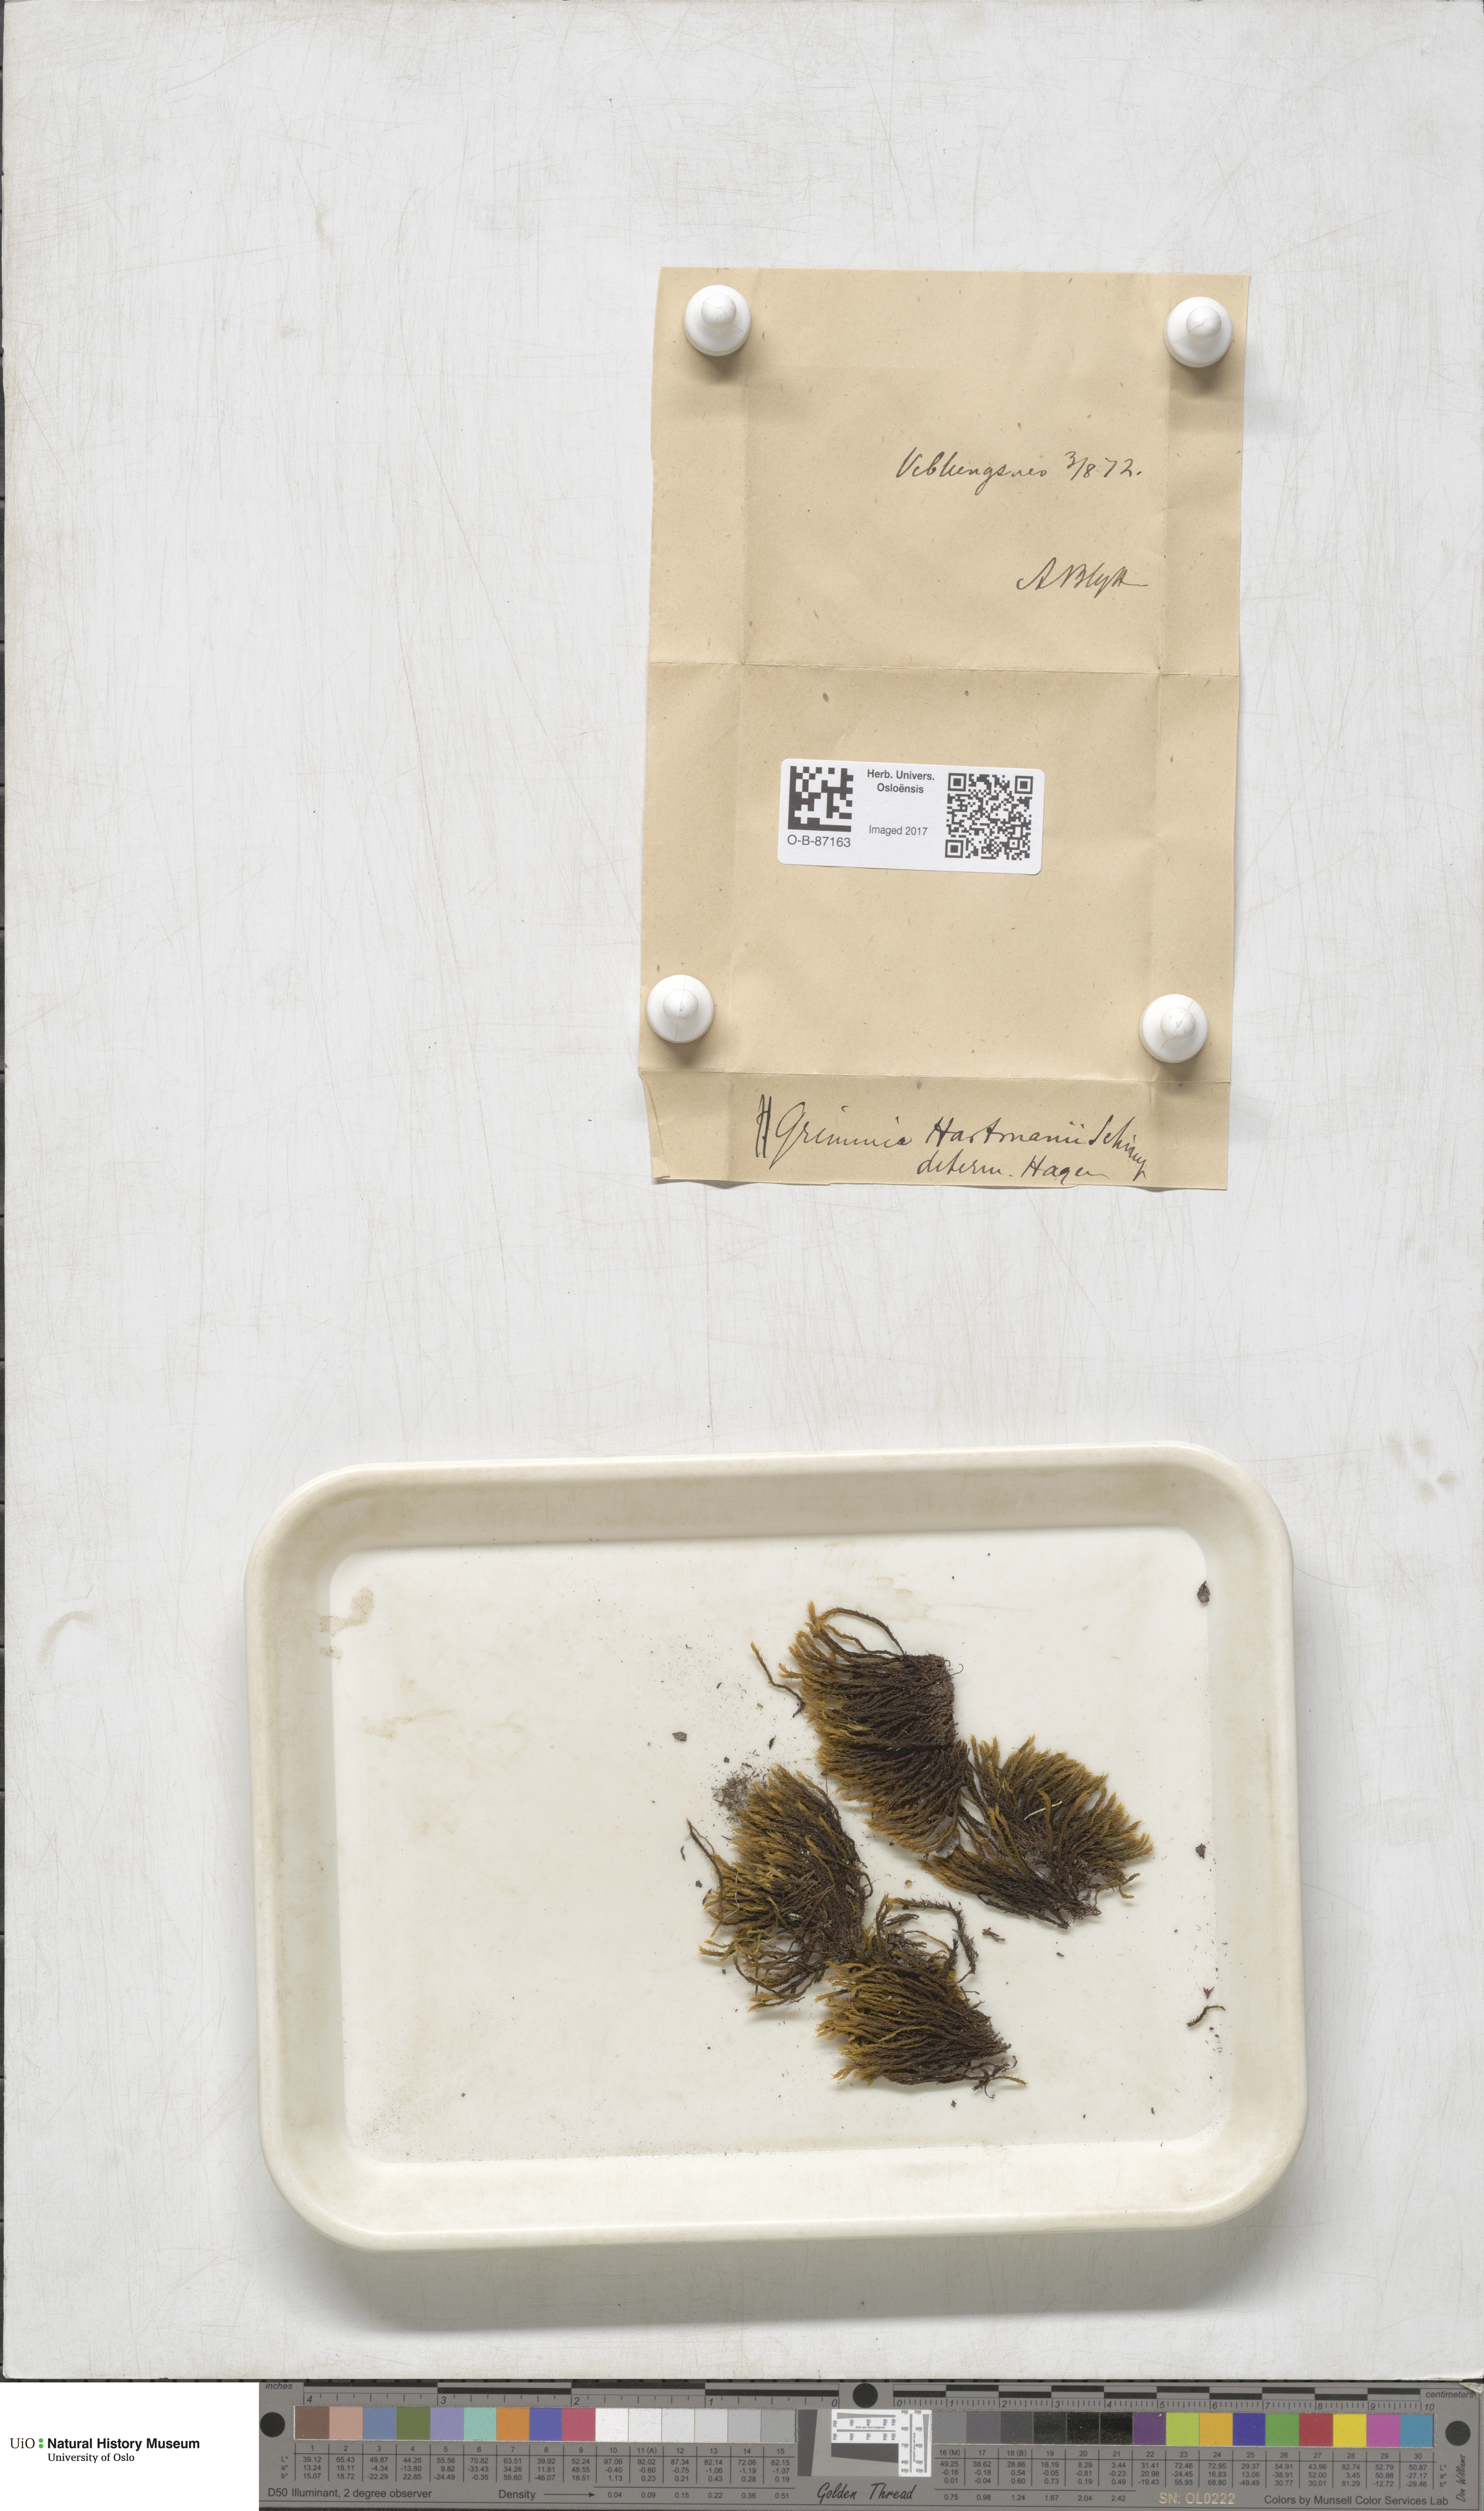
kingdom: Plantae
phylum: Bryophyta
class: Bryopsida
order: Grimmiales
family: Grimmiaceae
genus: Grimmia
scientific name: Grimmia hartmanii
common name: Hartman's grimmia
